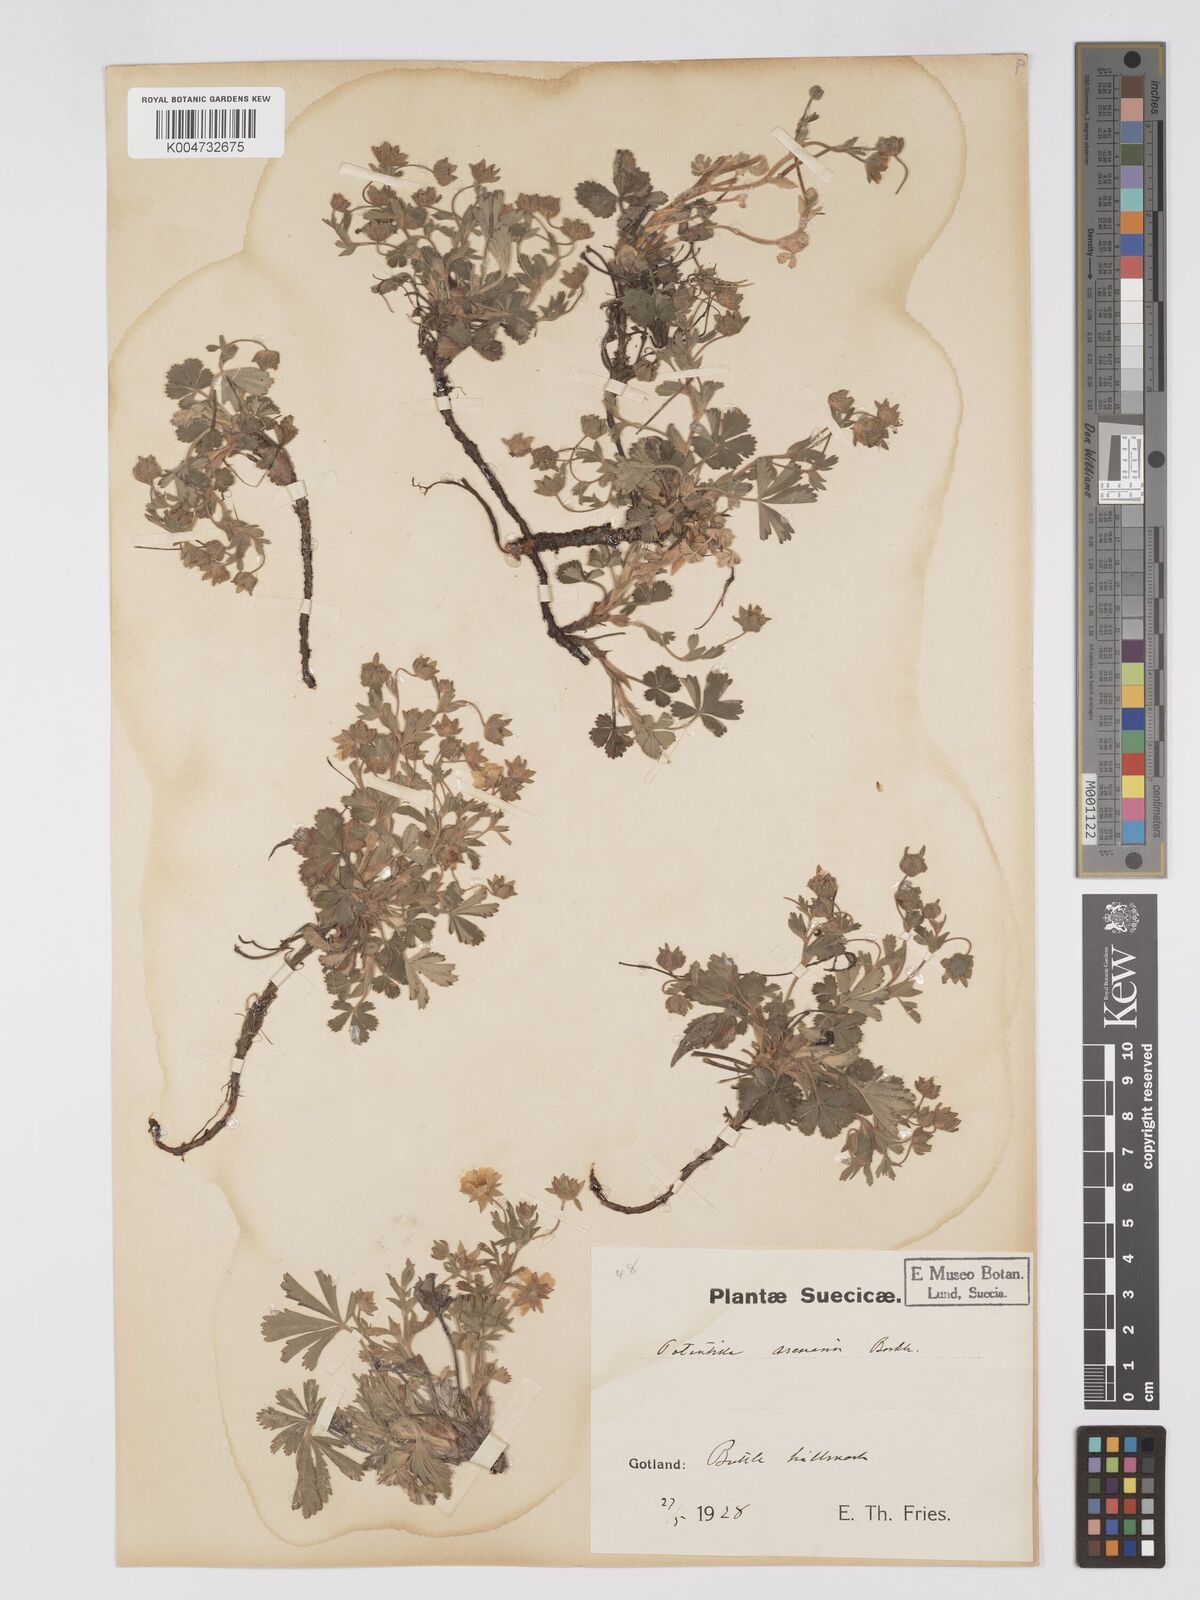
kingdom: Plantae
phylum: Tracheophyta
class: Magnoliopsida
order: Rosales
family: Rosaceae
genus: Potentilla
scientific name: Potentilla cinerea
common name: Ashy cinquefoil
